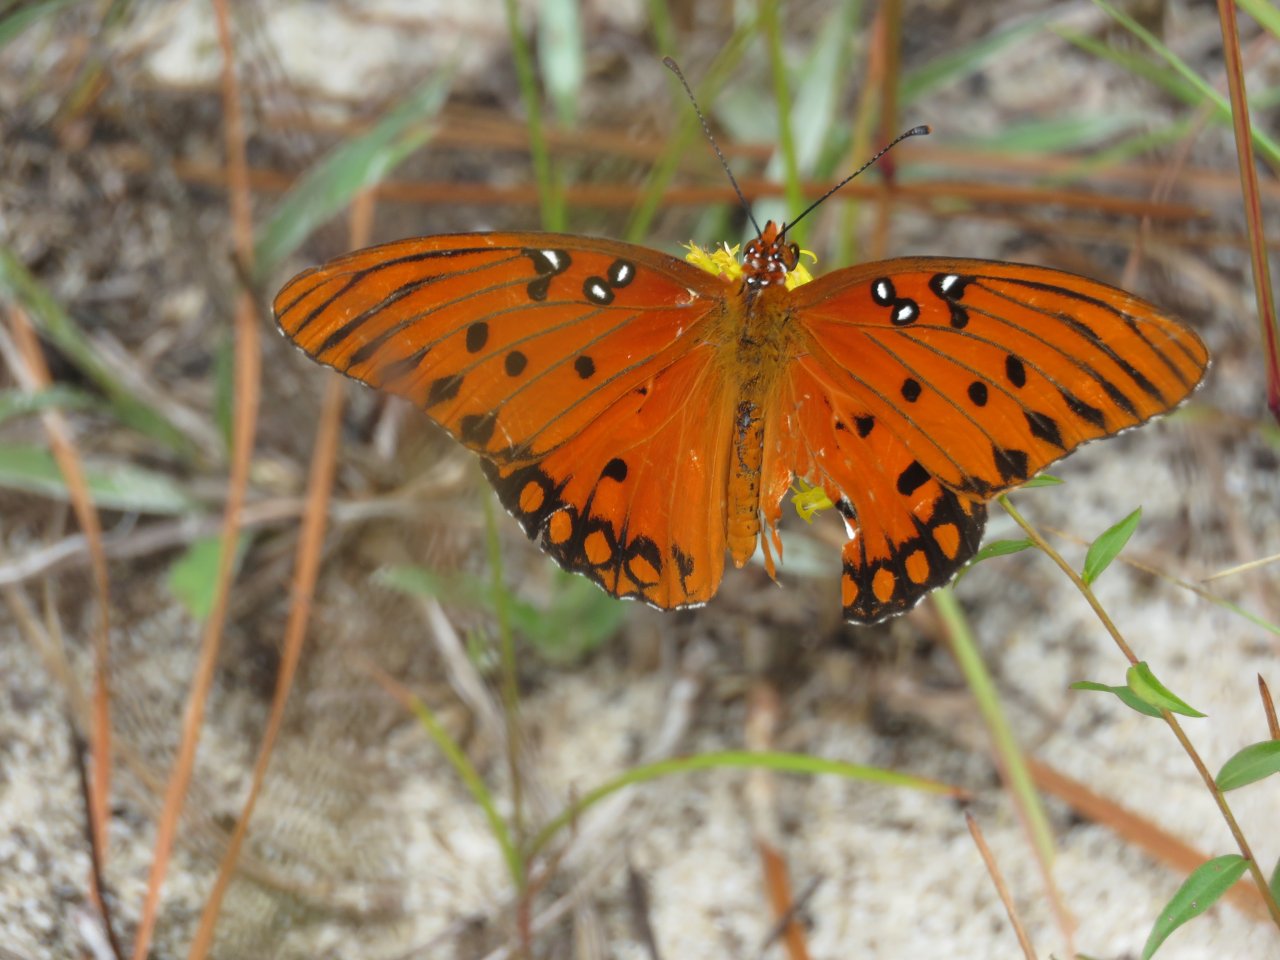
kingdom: Animalia
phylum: Arthropoda
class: Insecta
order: Lepidoptera
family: Nymphalidae
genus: Dione
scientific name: Dione vanillae
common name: Gulf Fritillary
